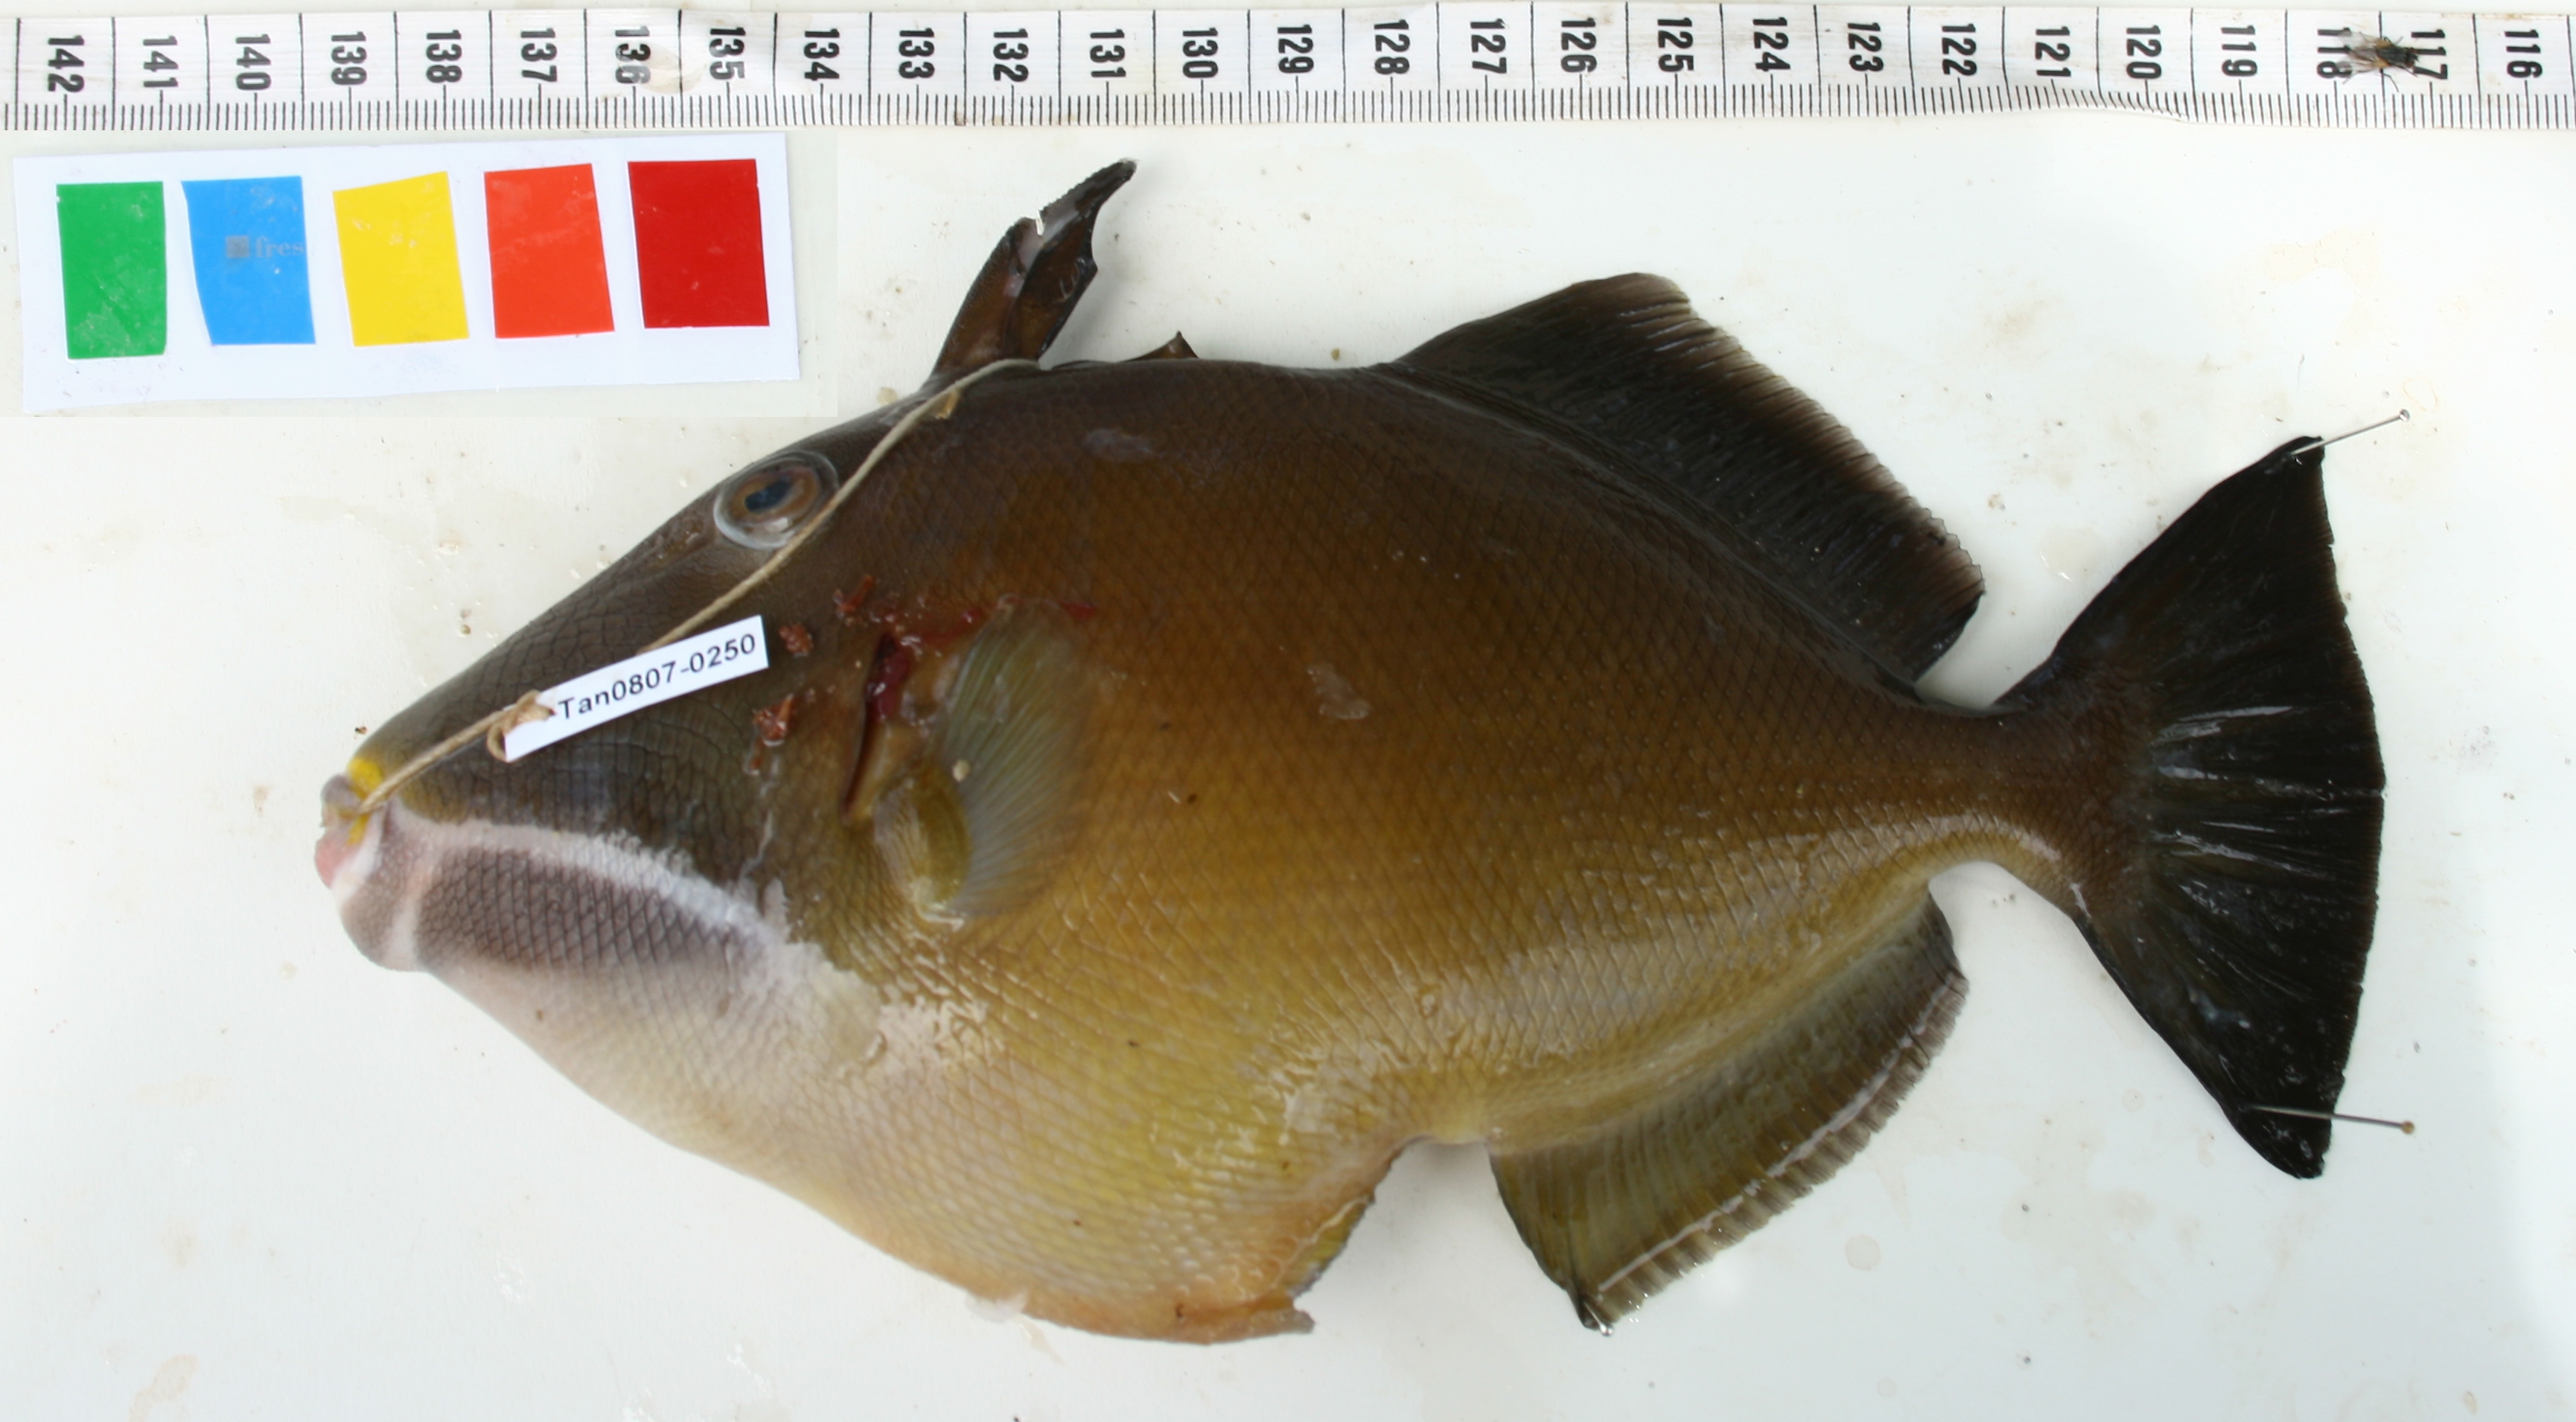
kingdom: Animalia
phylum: Chordata
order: Tetraodontiformes
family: Balistidae
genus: Sufflamen
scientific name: Sufflamen fraenatum
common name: Bridle triggerfish
